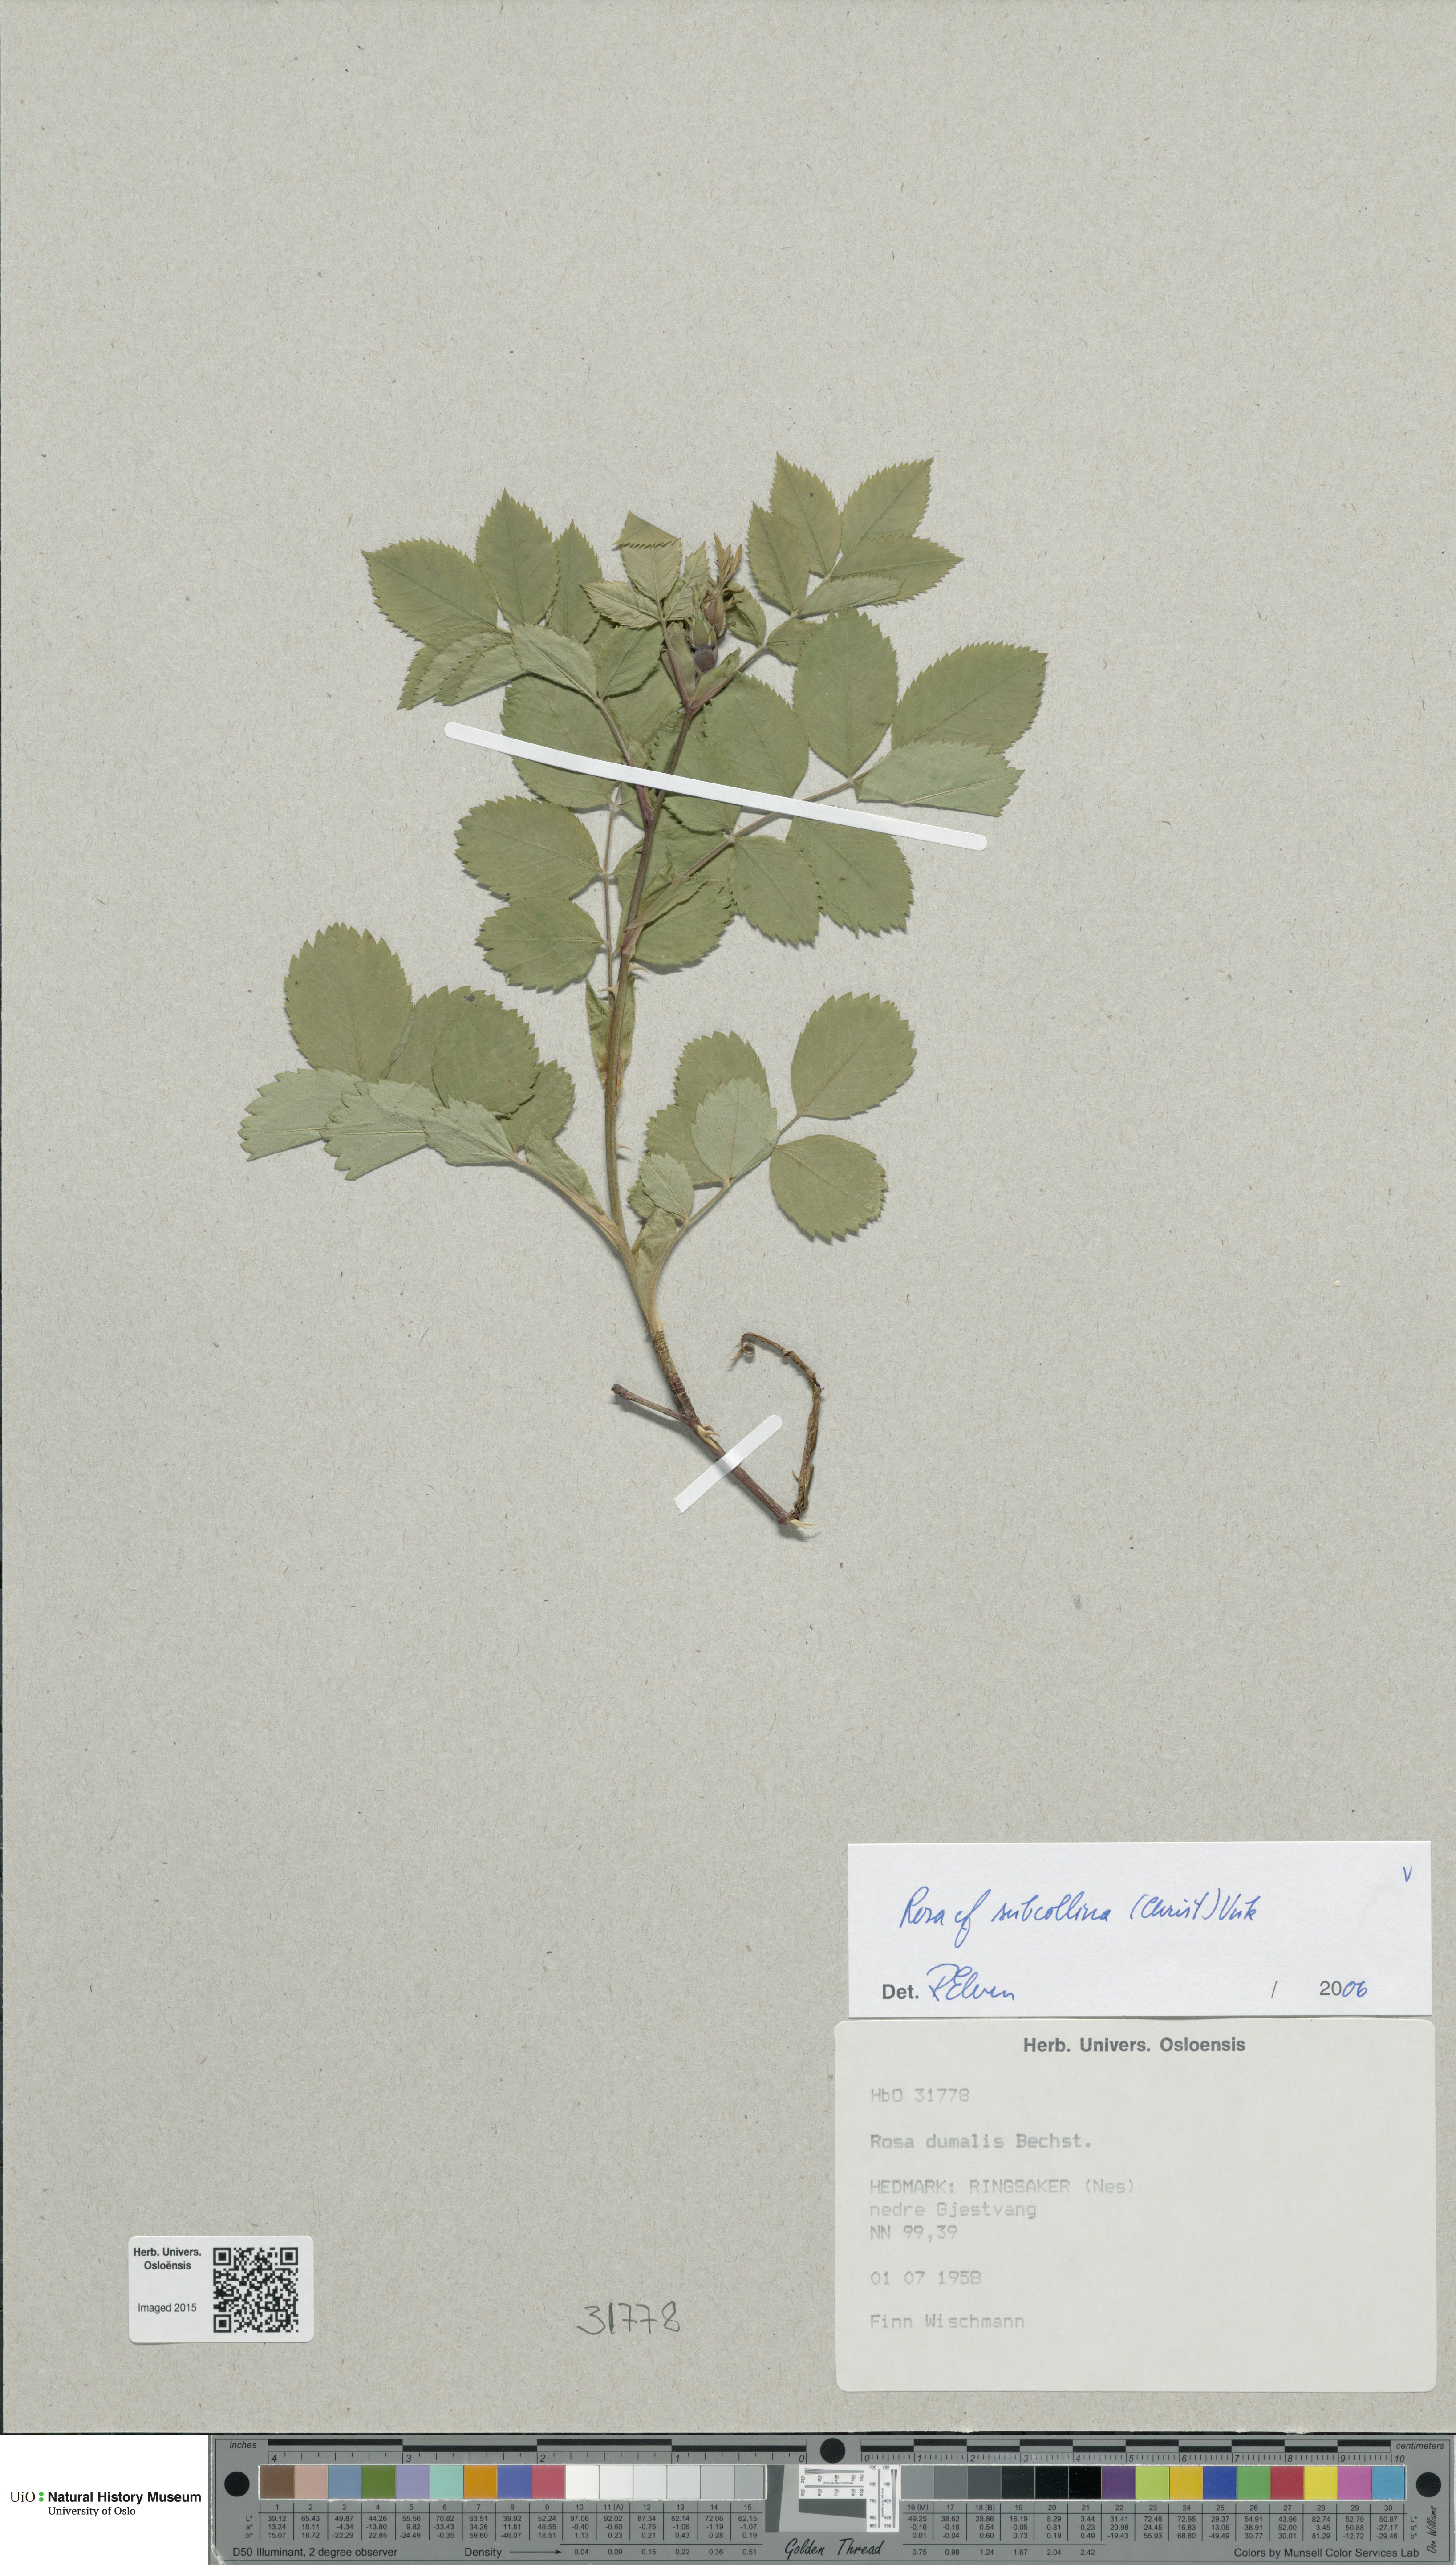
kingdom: Plantae
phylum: Tracheophyta
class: Magnoliopsida
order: Rosales
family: Rosaceae
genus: Rosa
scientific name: Rosa subcollina
